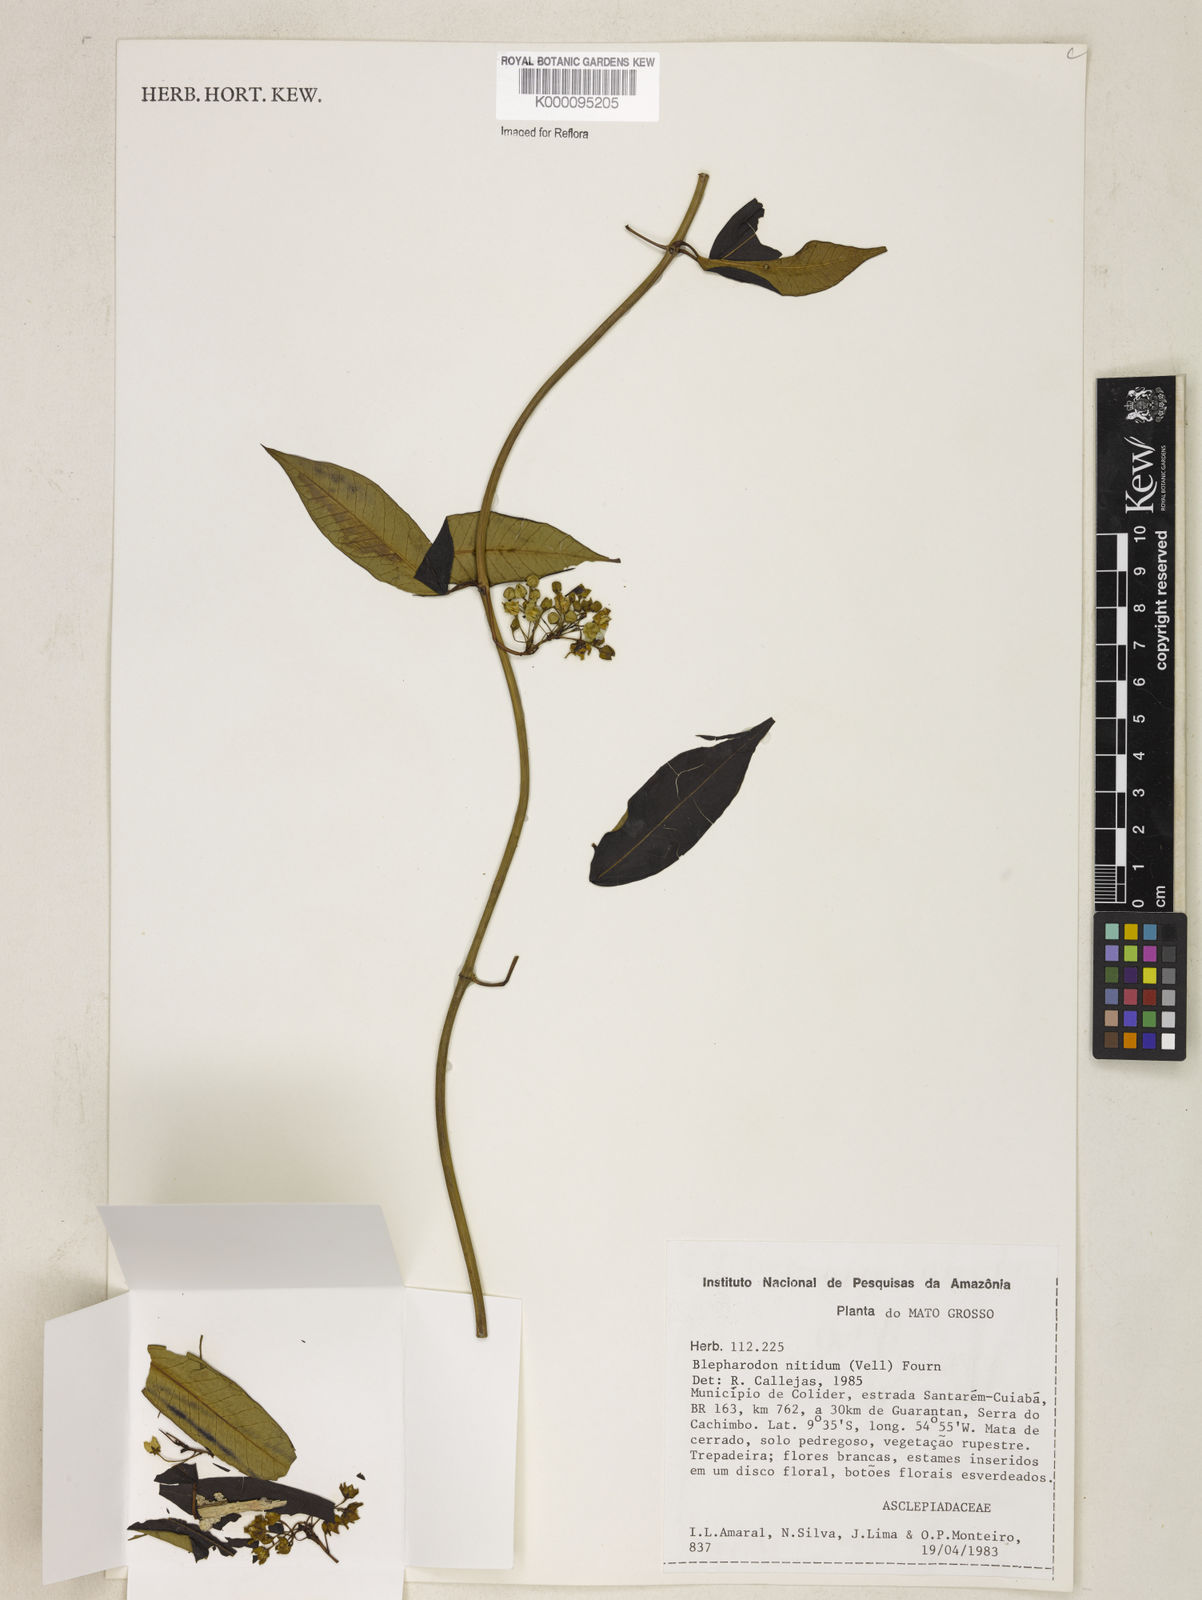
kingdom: Plantae
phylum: Tracheophyta
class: Magnoliopsida
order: Gentianales
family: Apocynaceae
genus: Blepharodon
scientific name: Blepharodon pictum
